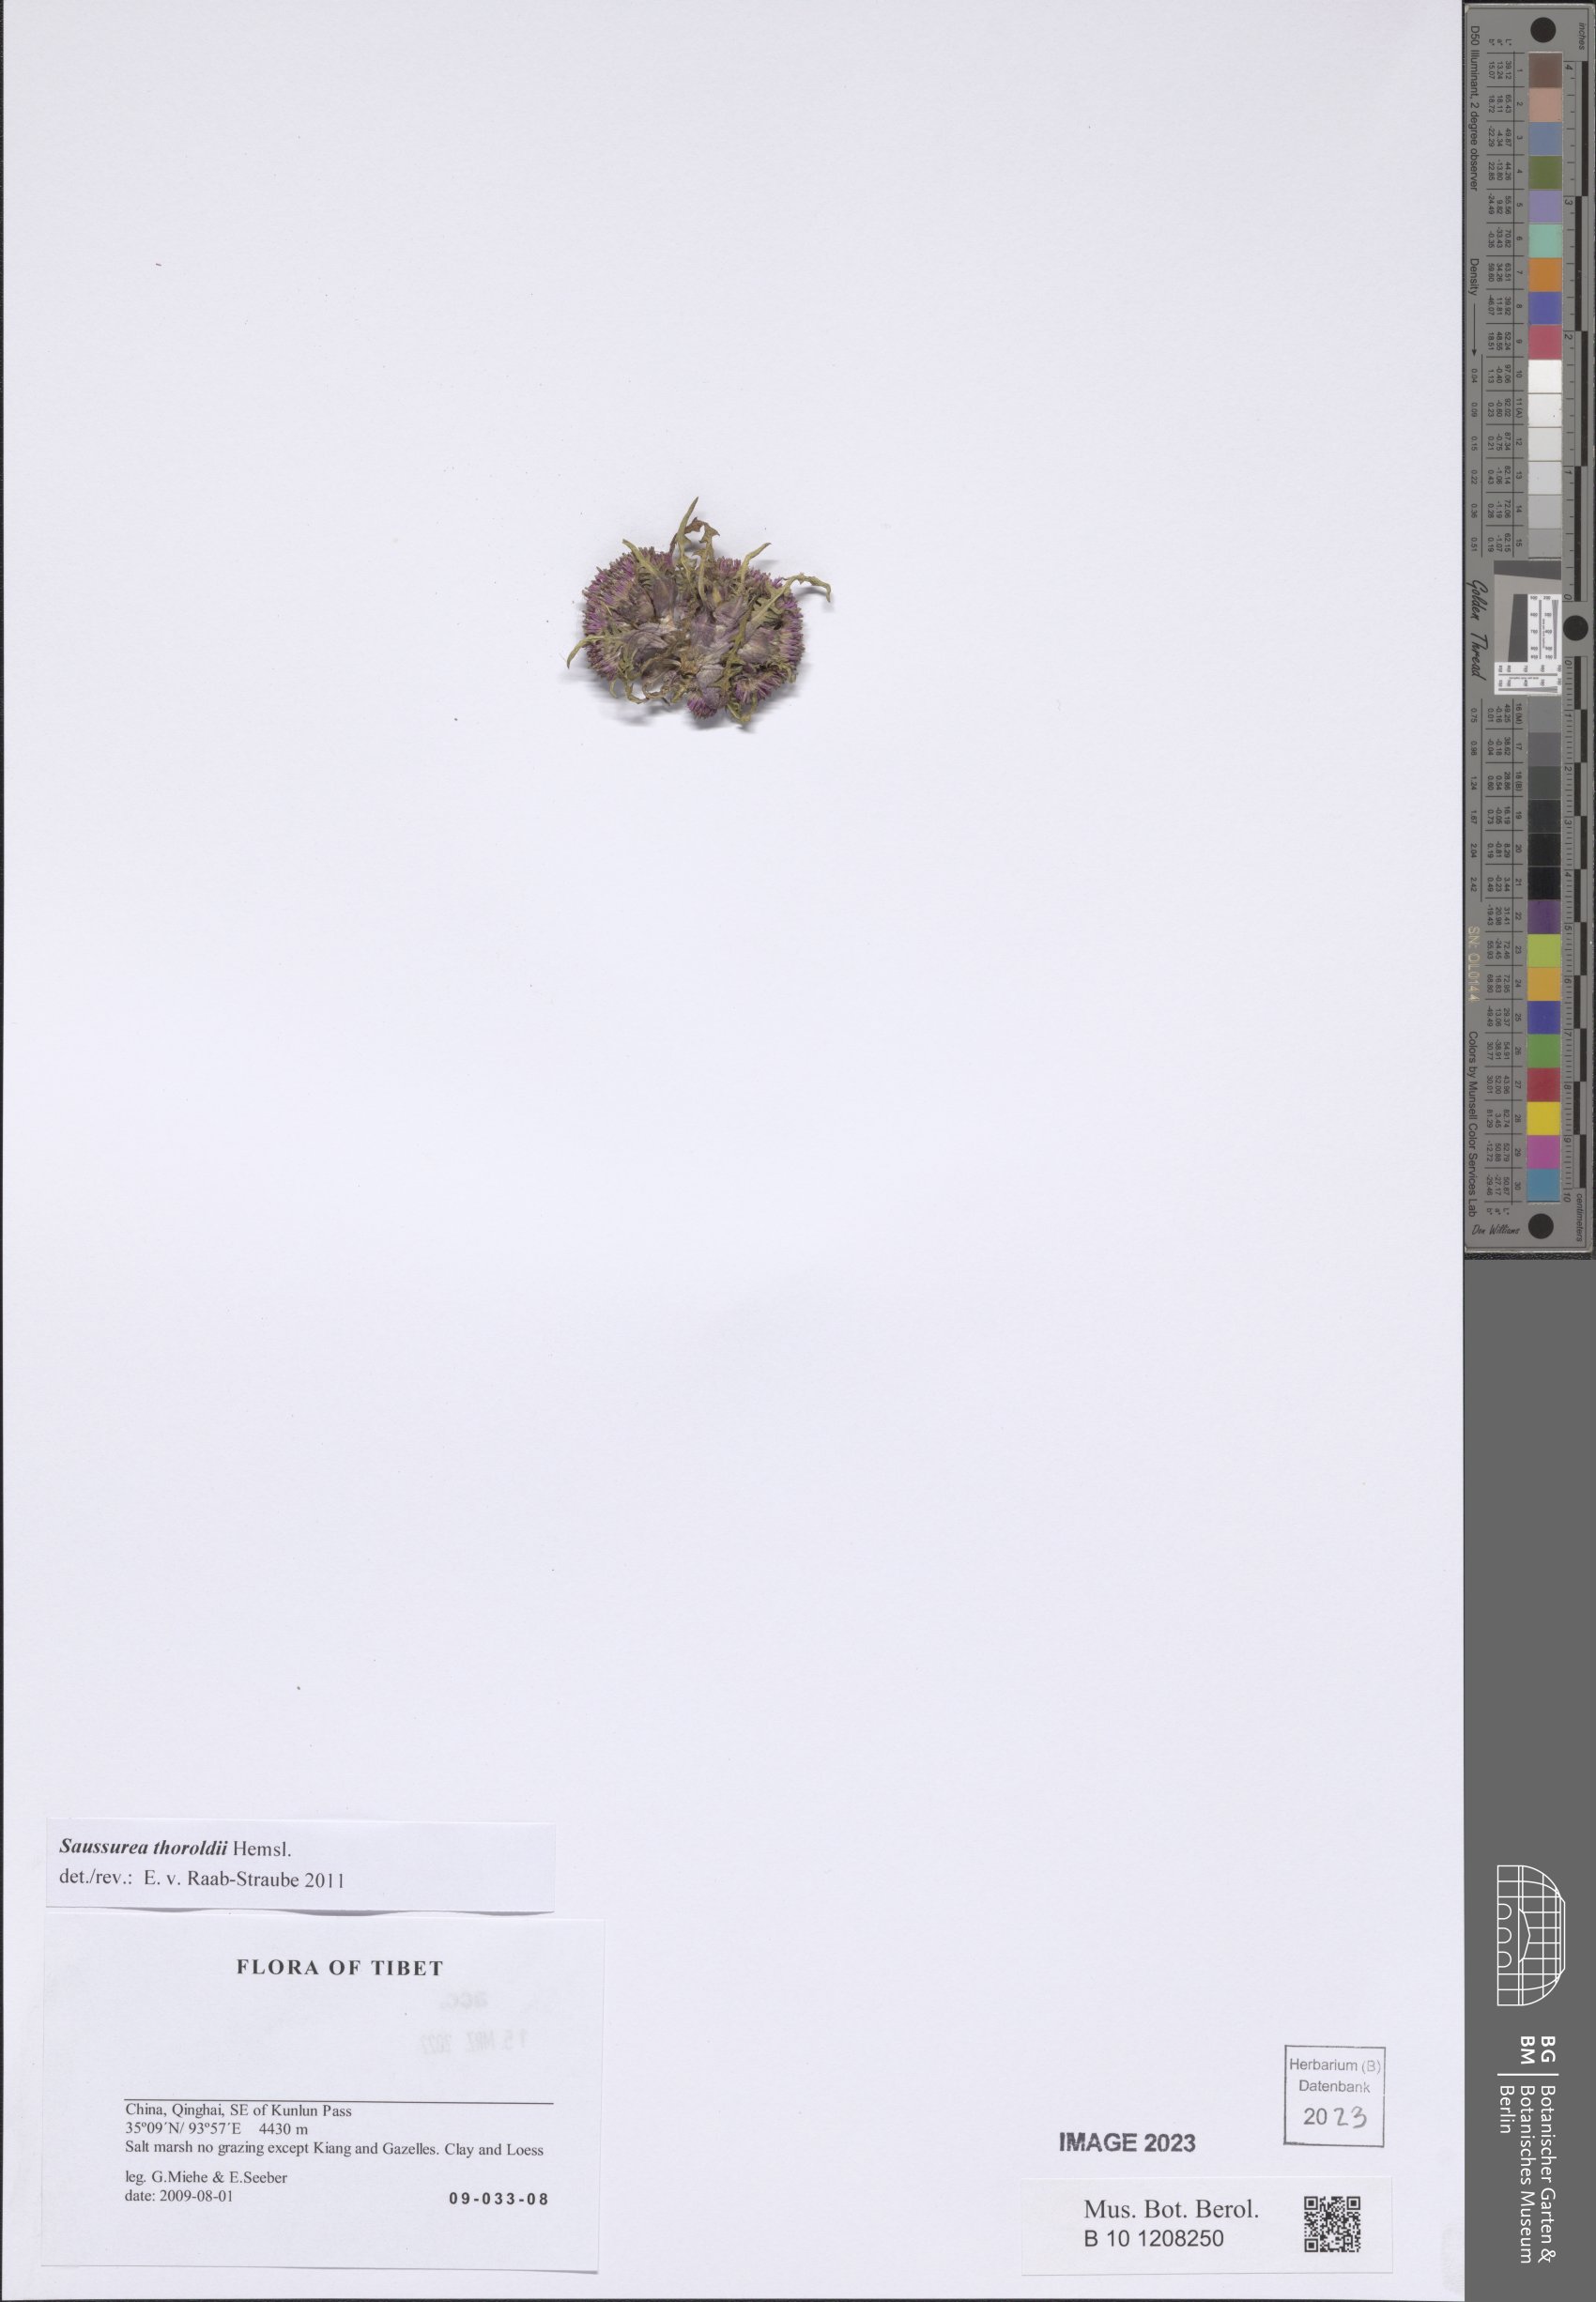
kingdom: Plantae
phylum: Tracheophyta
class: Magnoliopsida
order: Asterales
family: Asteraceae
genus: Saussurea
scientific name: Saussurea thoroldii
